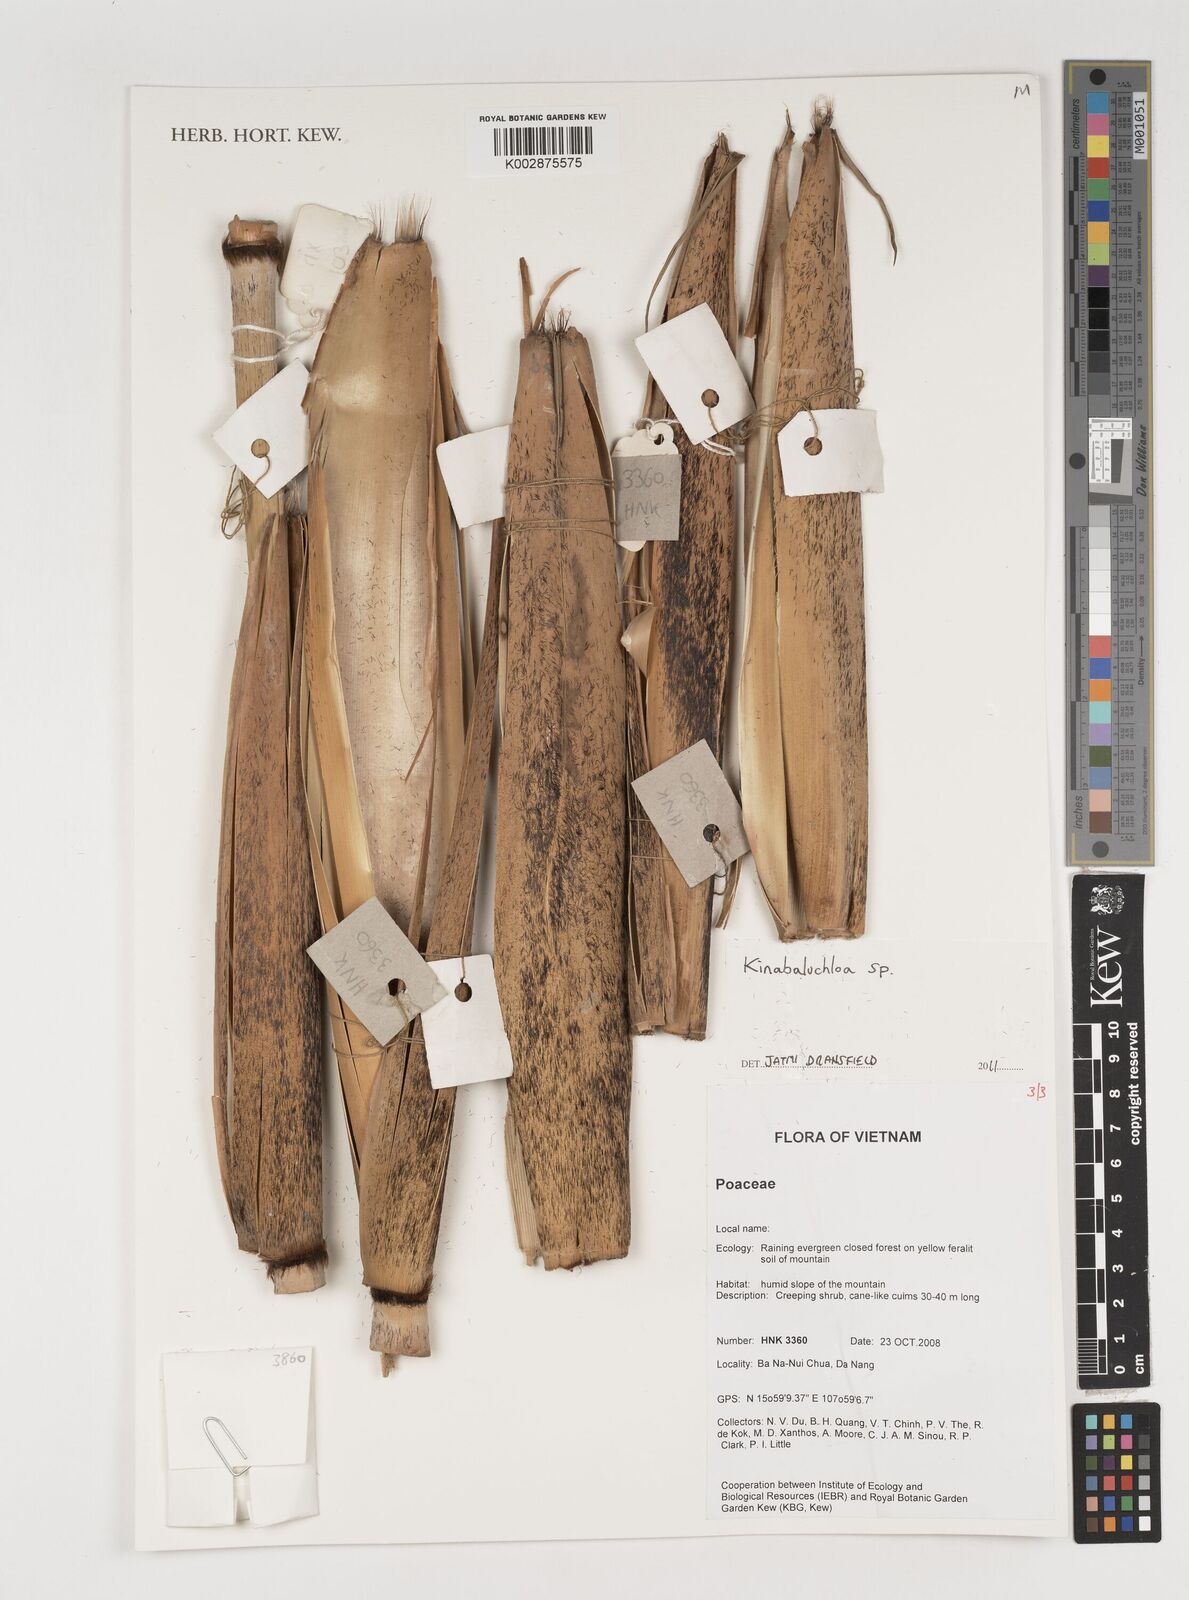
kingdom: Plantae
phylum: Tracheophyta
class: Liliopsida
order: Poales
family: Poaceae
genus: Kinabaluchloa
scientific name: Kinabaluchloa
